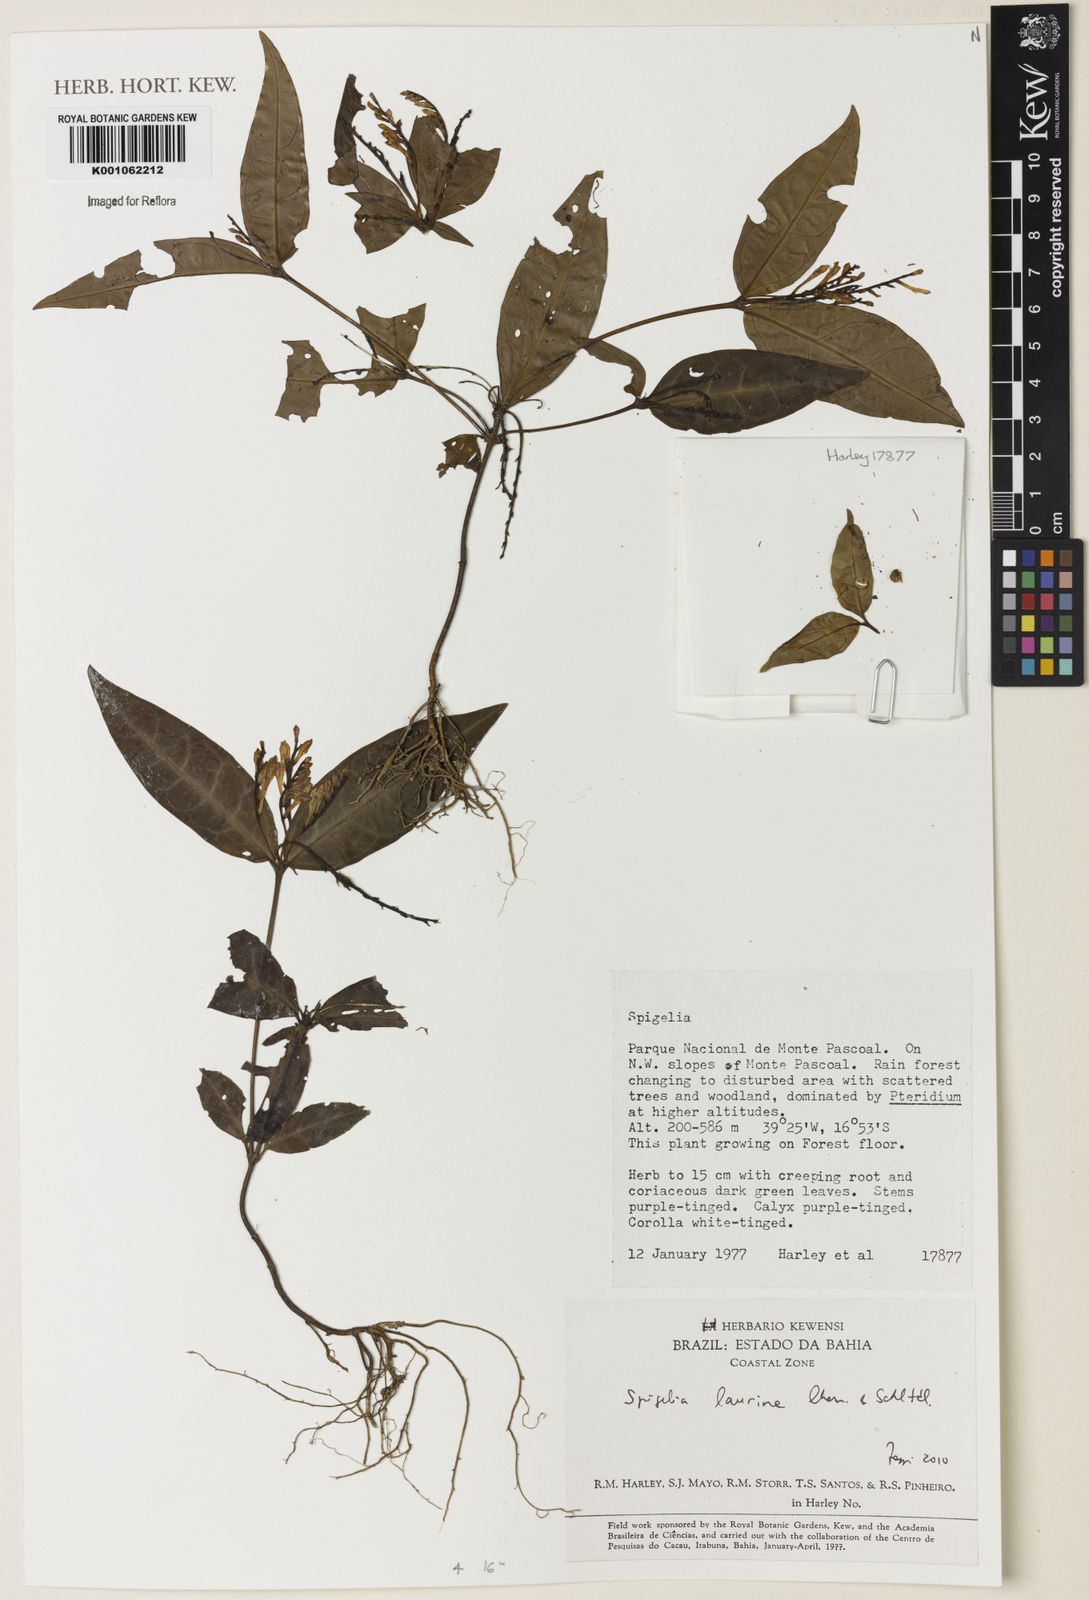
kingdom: Plantae
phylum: Tracheophyta
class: Magnoliopsida
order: Gentianales
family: Loganiaceae
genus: Spigelia
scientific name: Spigelia laurina
